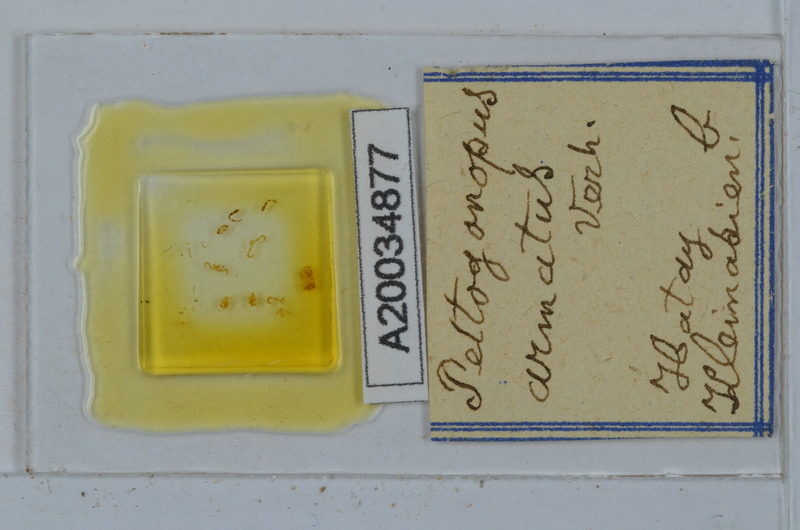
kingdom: Animalia
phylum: Arthropoda
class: Diplopoda
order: Polydesmida
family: Polydesmidae
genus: Peltogonopus
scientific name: Peltogonopus armatus
